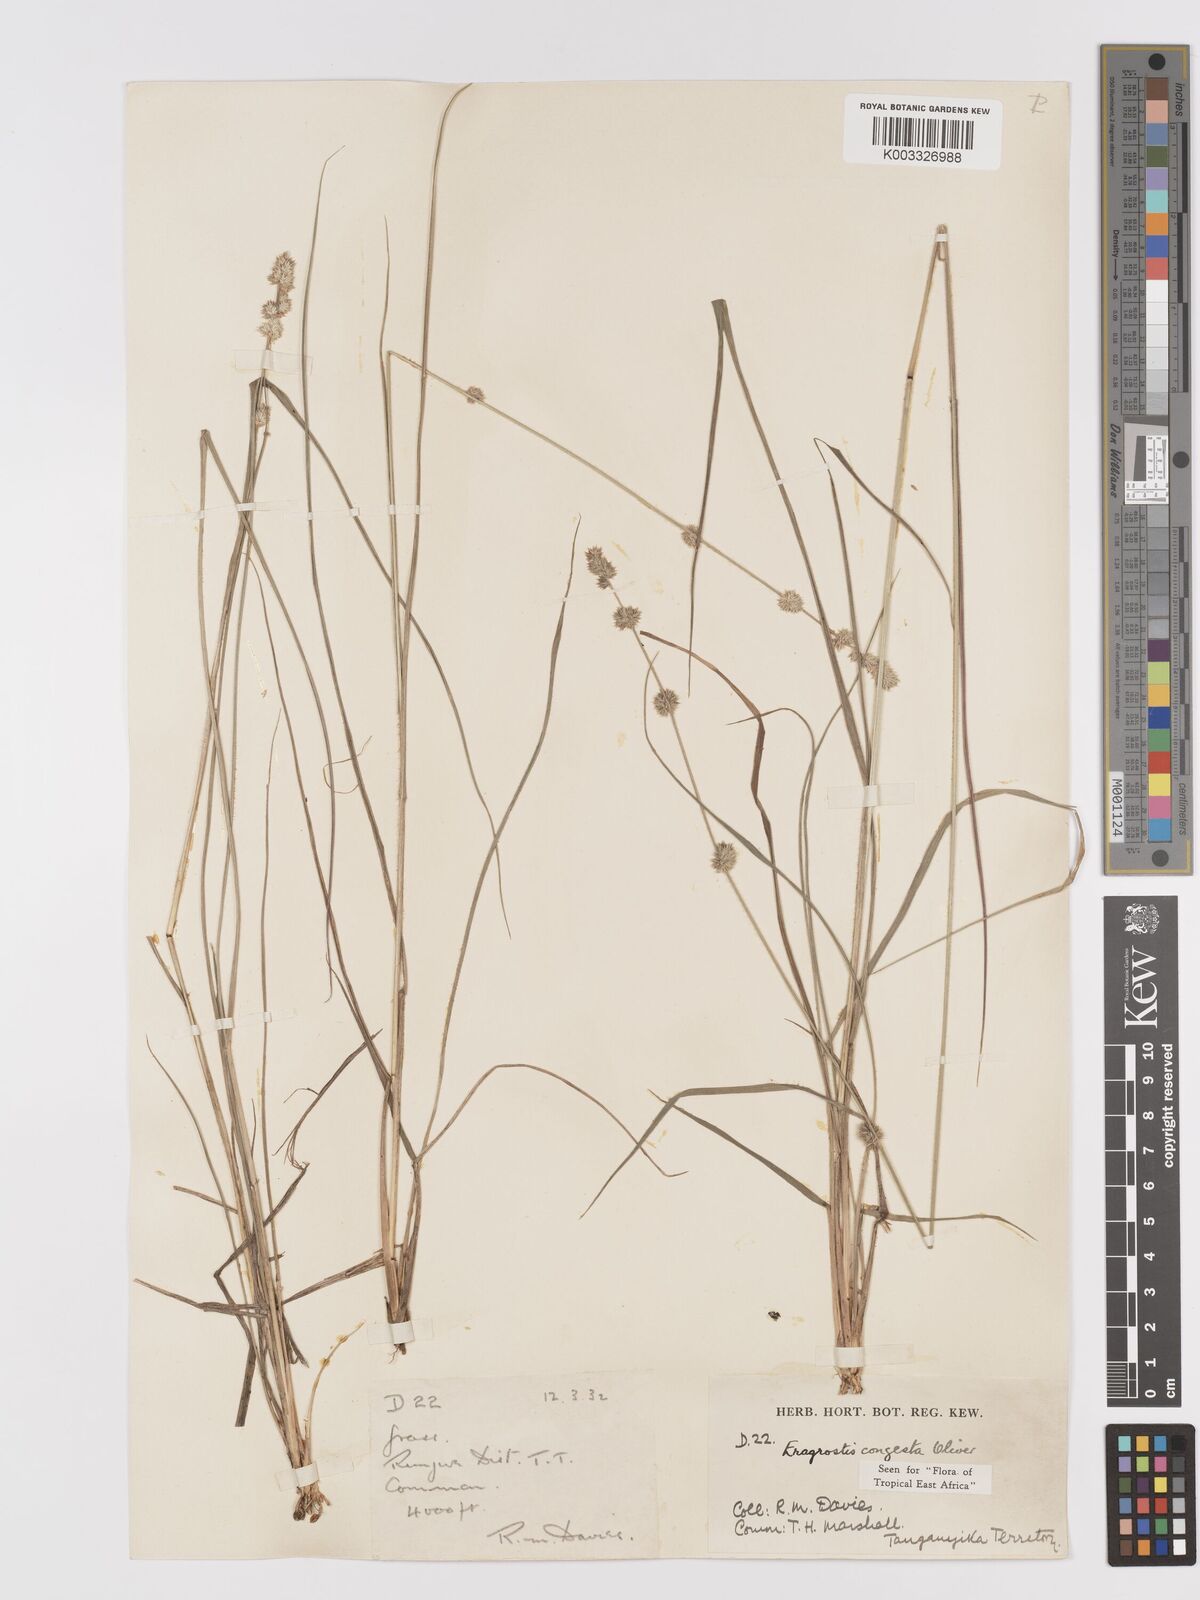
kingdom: Plantae
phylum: Tracheophyta
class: Liliopsida
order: Poales
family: Poaceae
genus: Eragrostis
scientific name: Eragrostis congesta
